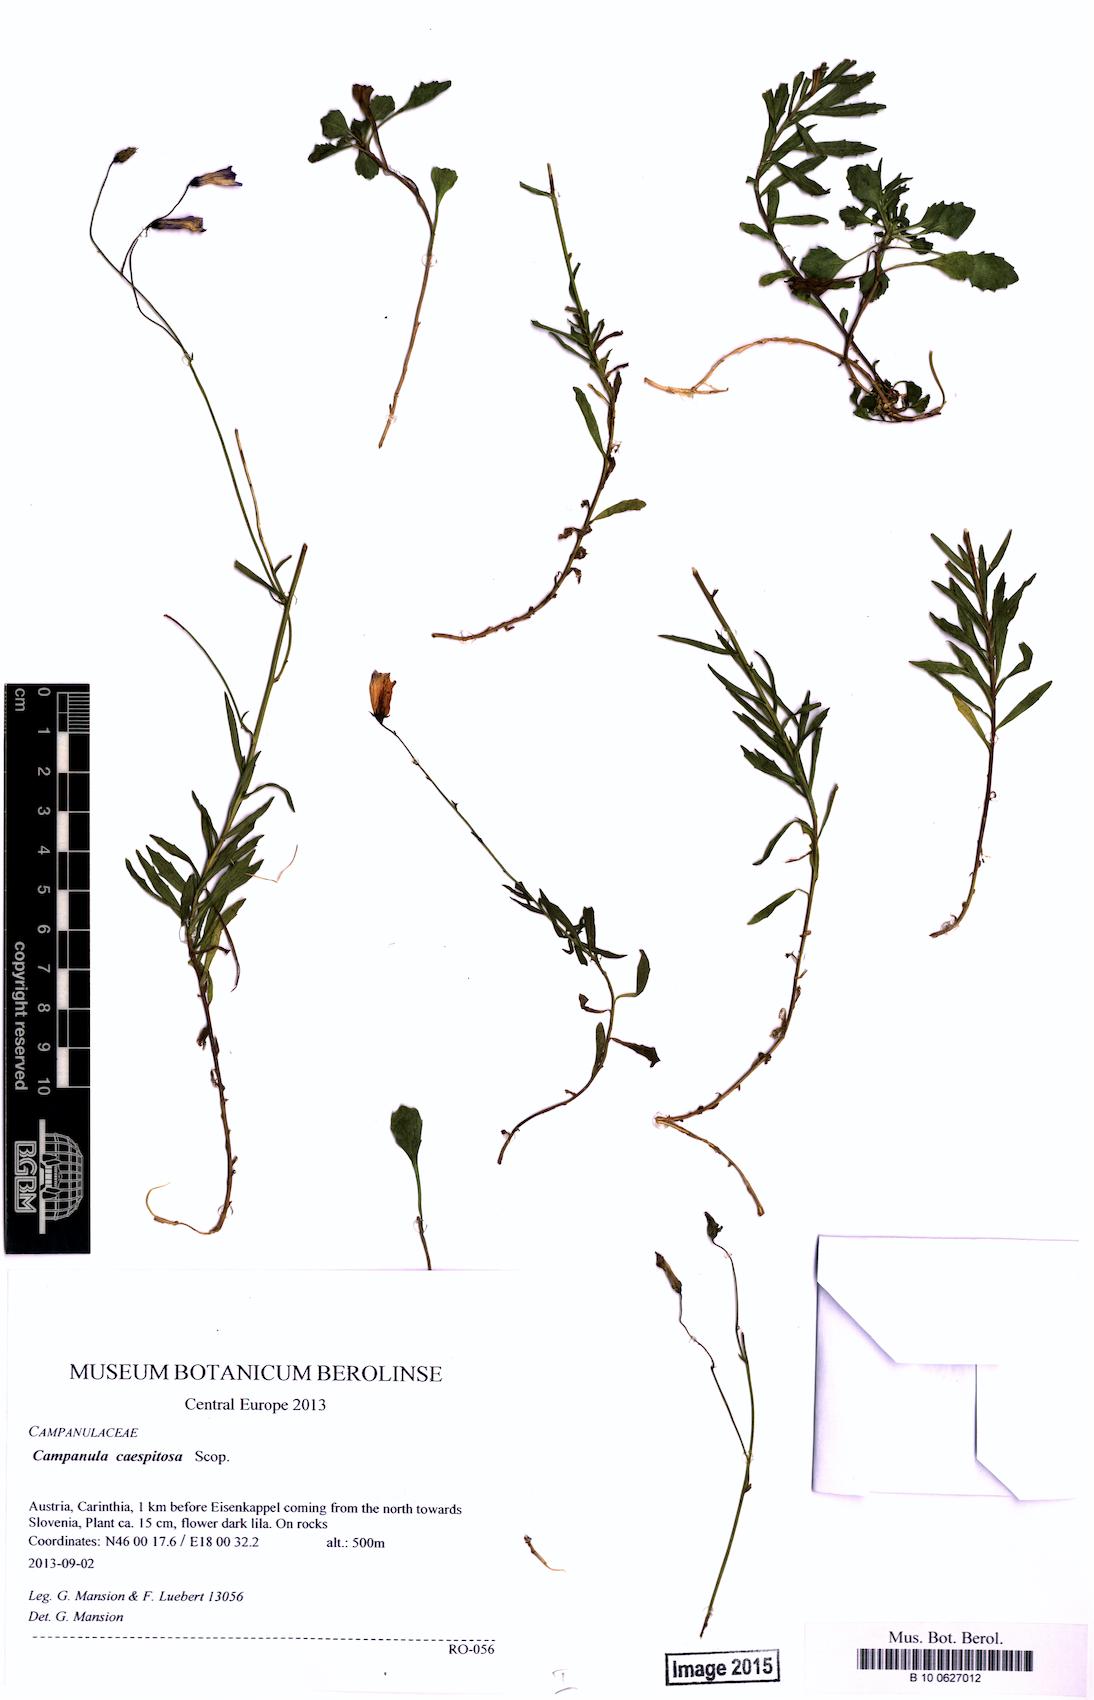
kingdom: Plantae
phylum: Tracheophyta
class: Magnoliopsida
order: Asterales
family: Campanulaceae
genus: Campanula
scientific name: Campanula caespitosa
